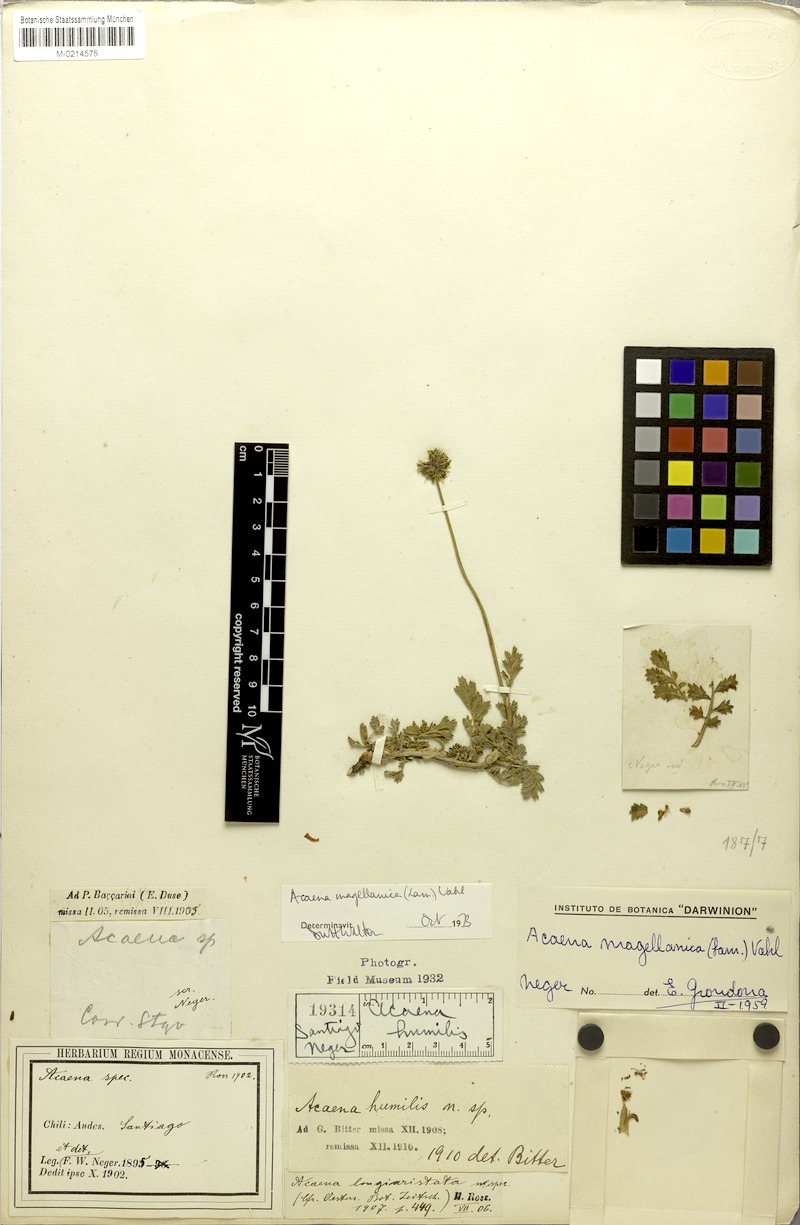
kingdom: Plantae
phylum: Tracheophyta
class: Magnoliopsida
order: Rosales
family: Rosaceae
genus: Acaena
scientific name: Acaena magellanica
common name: New zealand burr
